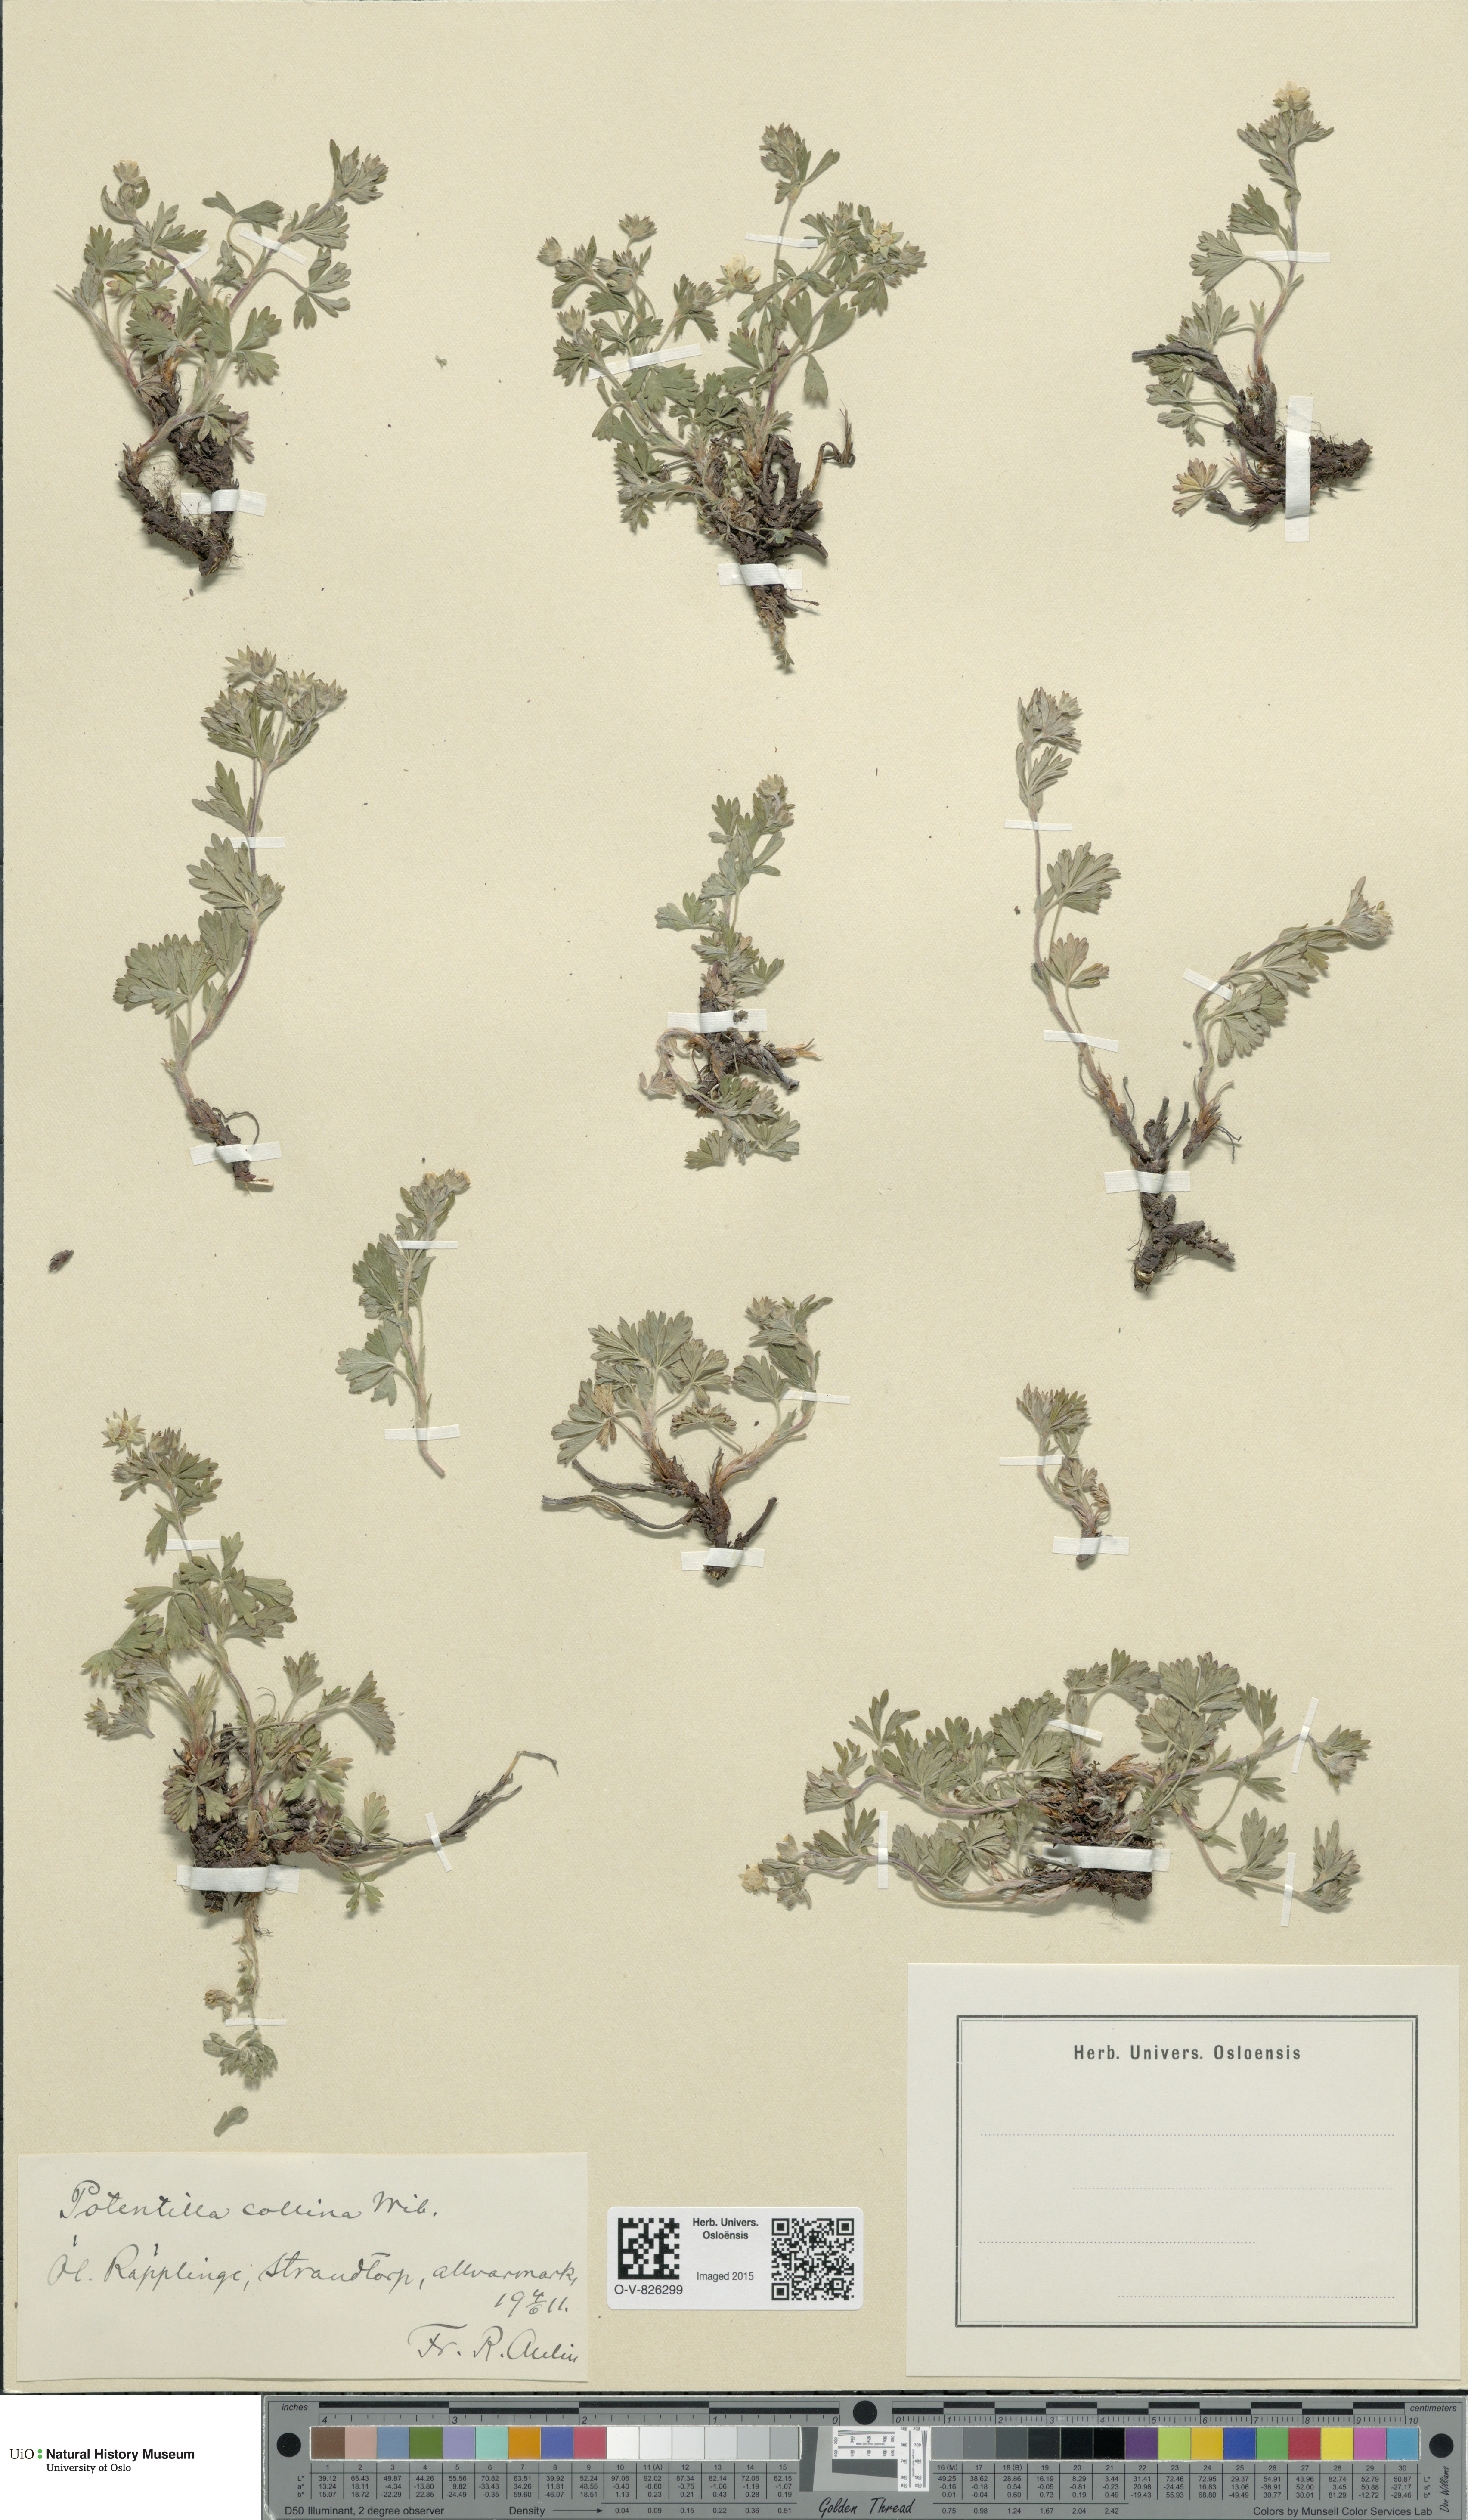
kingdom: Plantae
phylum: Tracheophyta
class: Magnoliopsida
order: Rosales
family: Rosaceae
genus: Potentilla
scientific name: Potentilla sterneri
